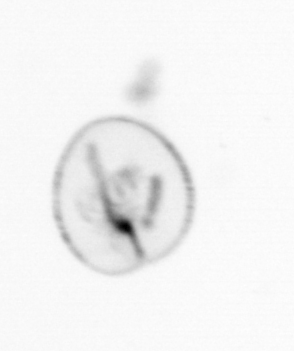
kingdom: Chromista
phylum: Myzozoa
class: Dinophyceae
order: Noctilucales
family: Noctilucaceae
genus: Noctiluca
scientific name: Noctiluca scintillans
